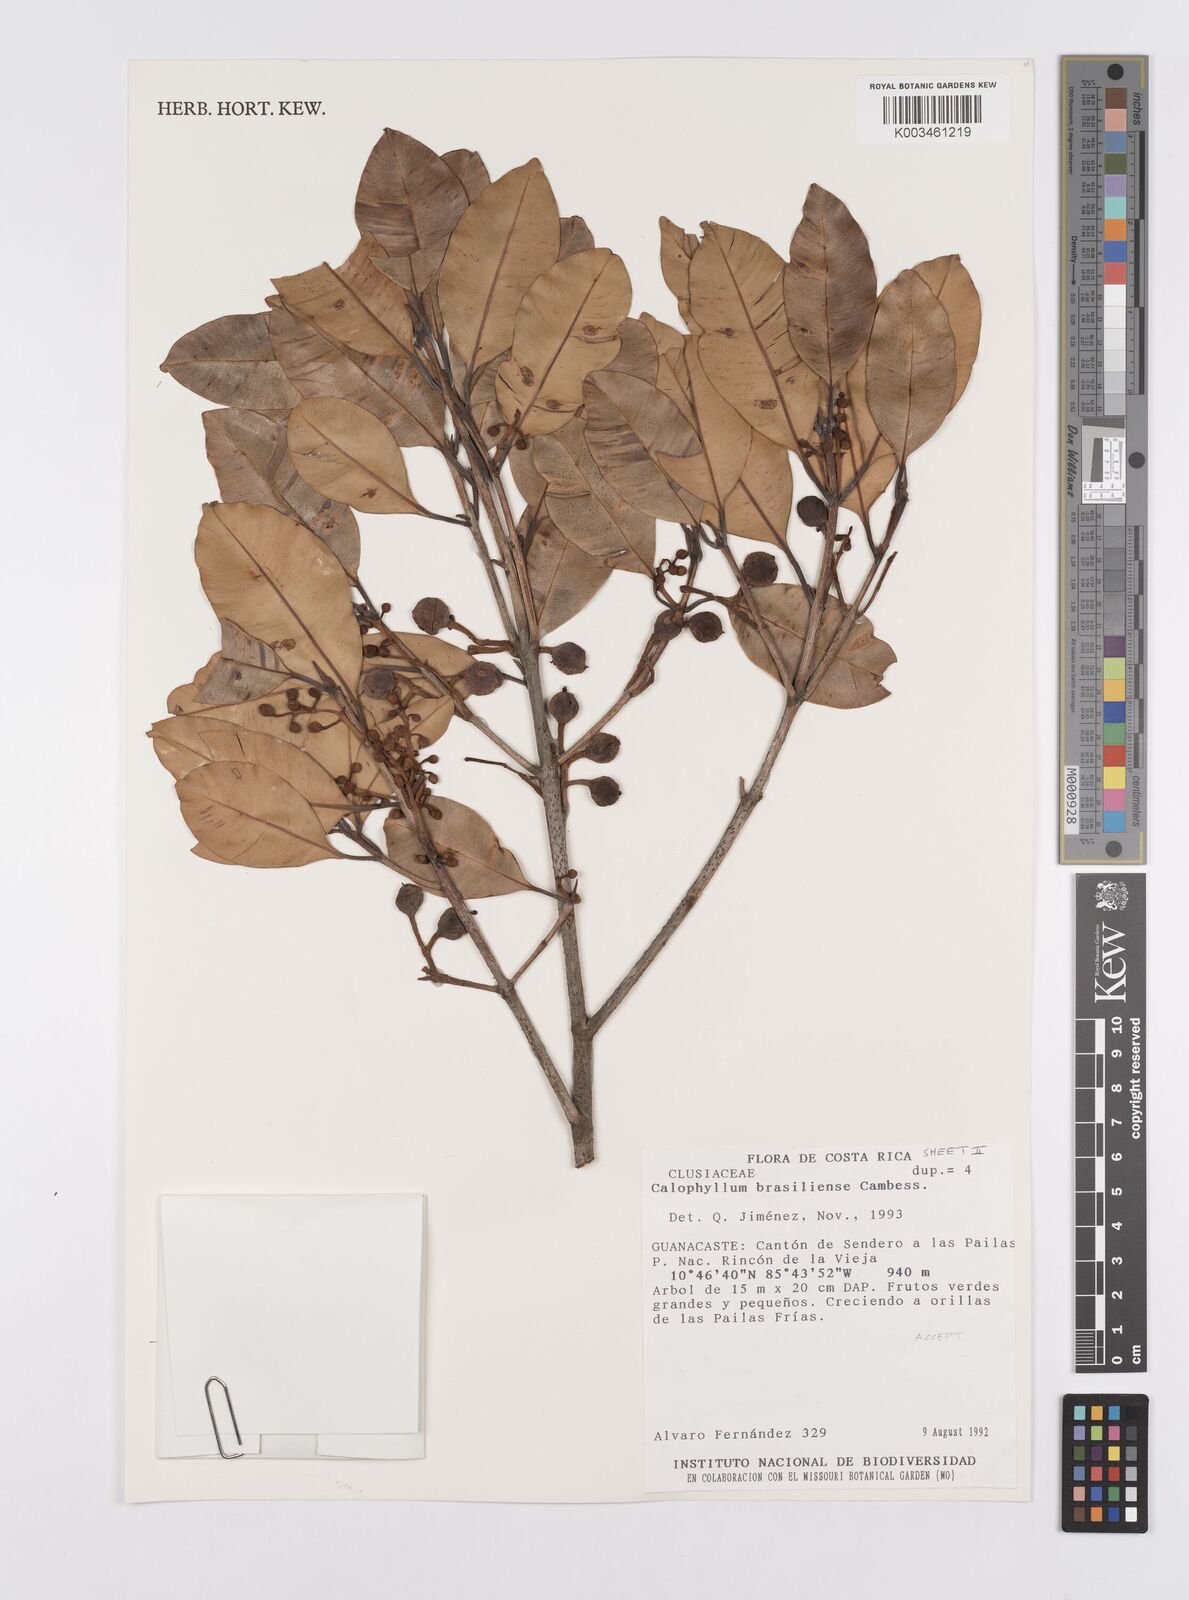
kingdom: Plantae
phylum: Tracheophyta
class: Magnoliopsida
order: Malpighiales
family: Calophyllaceae
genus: Calophyllum
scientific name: Calophyllum brasiliense
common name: Santa maria
